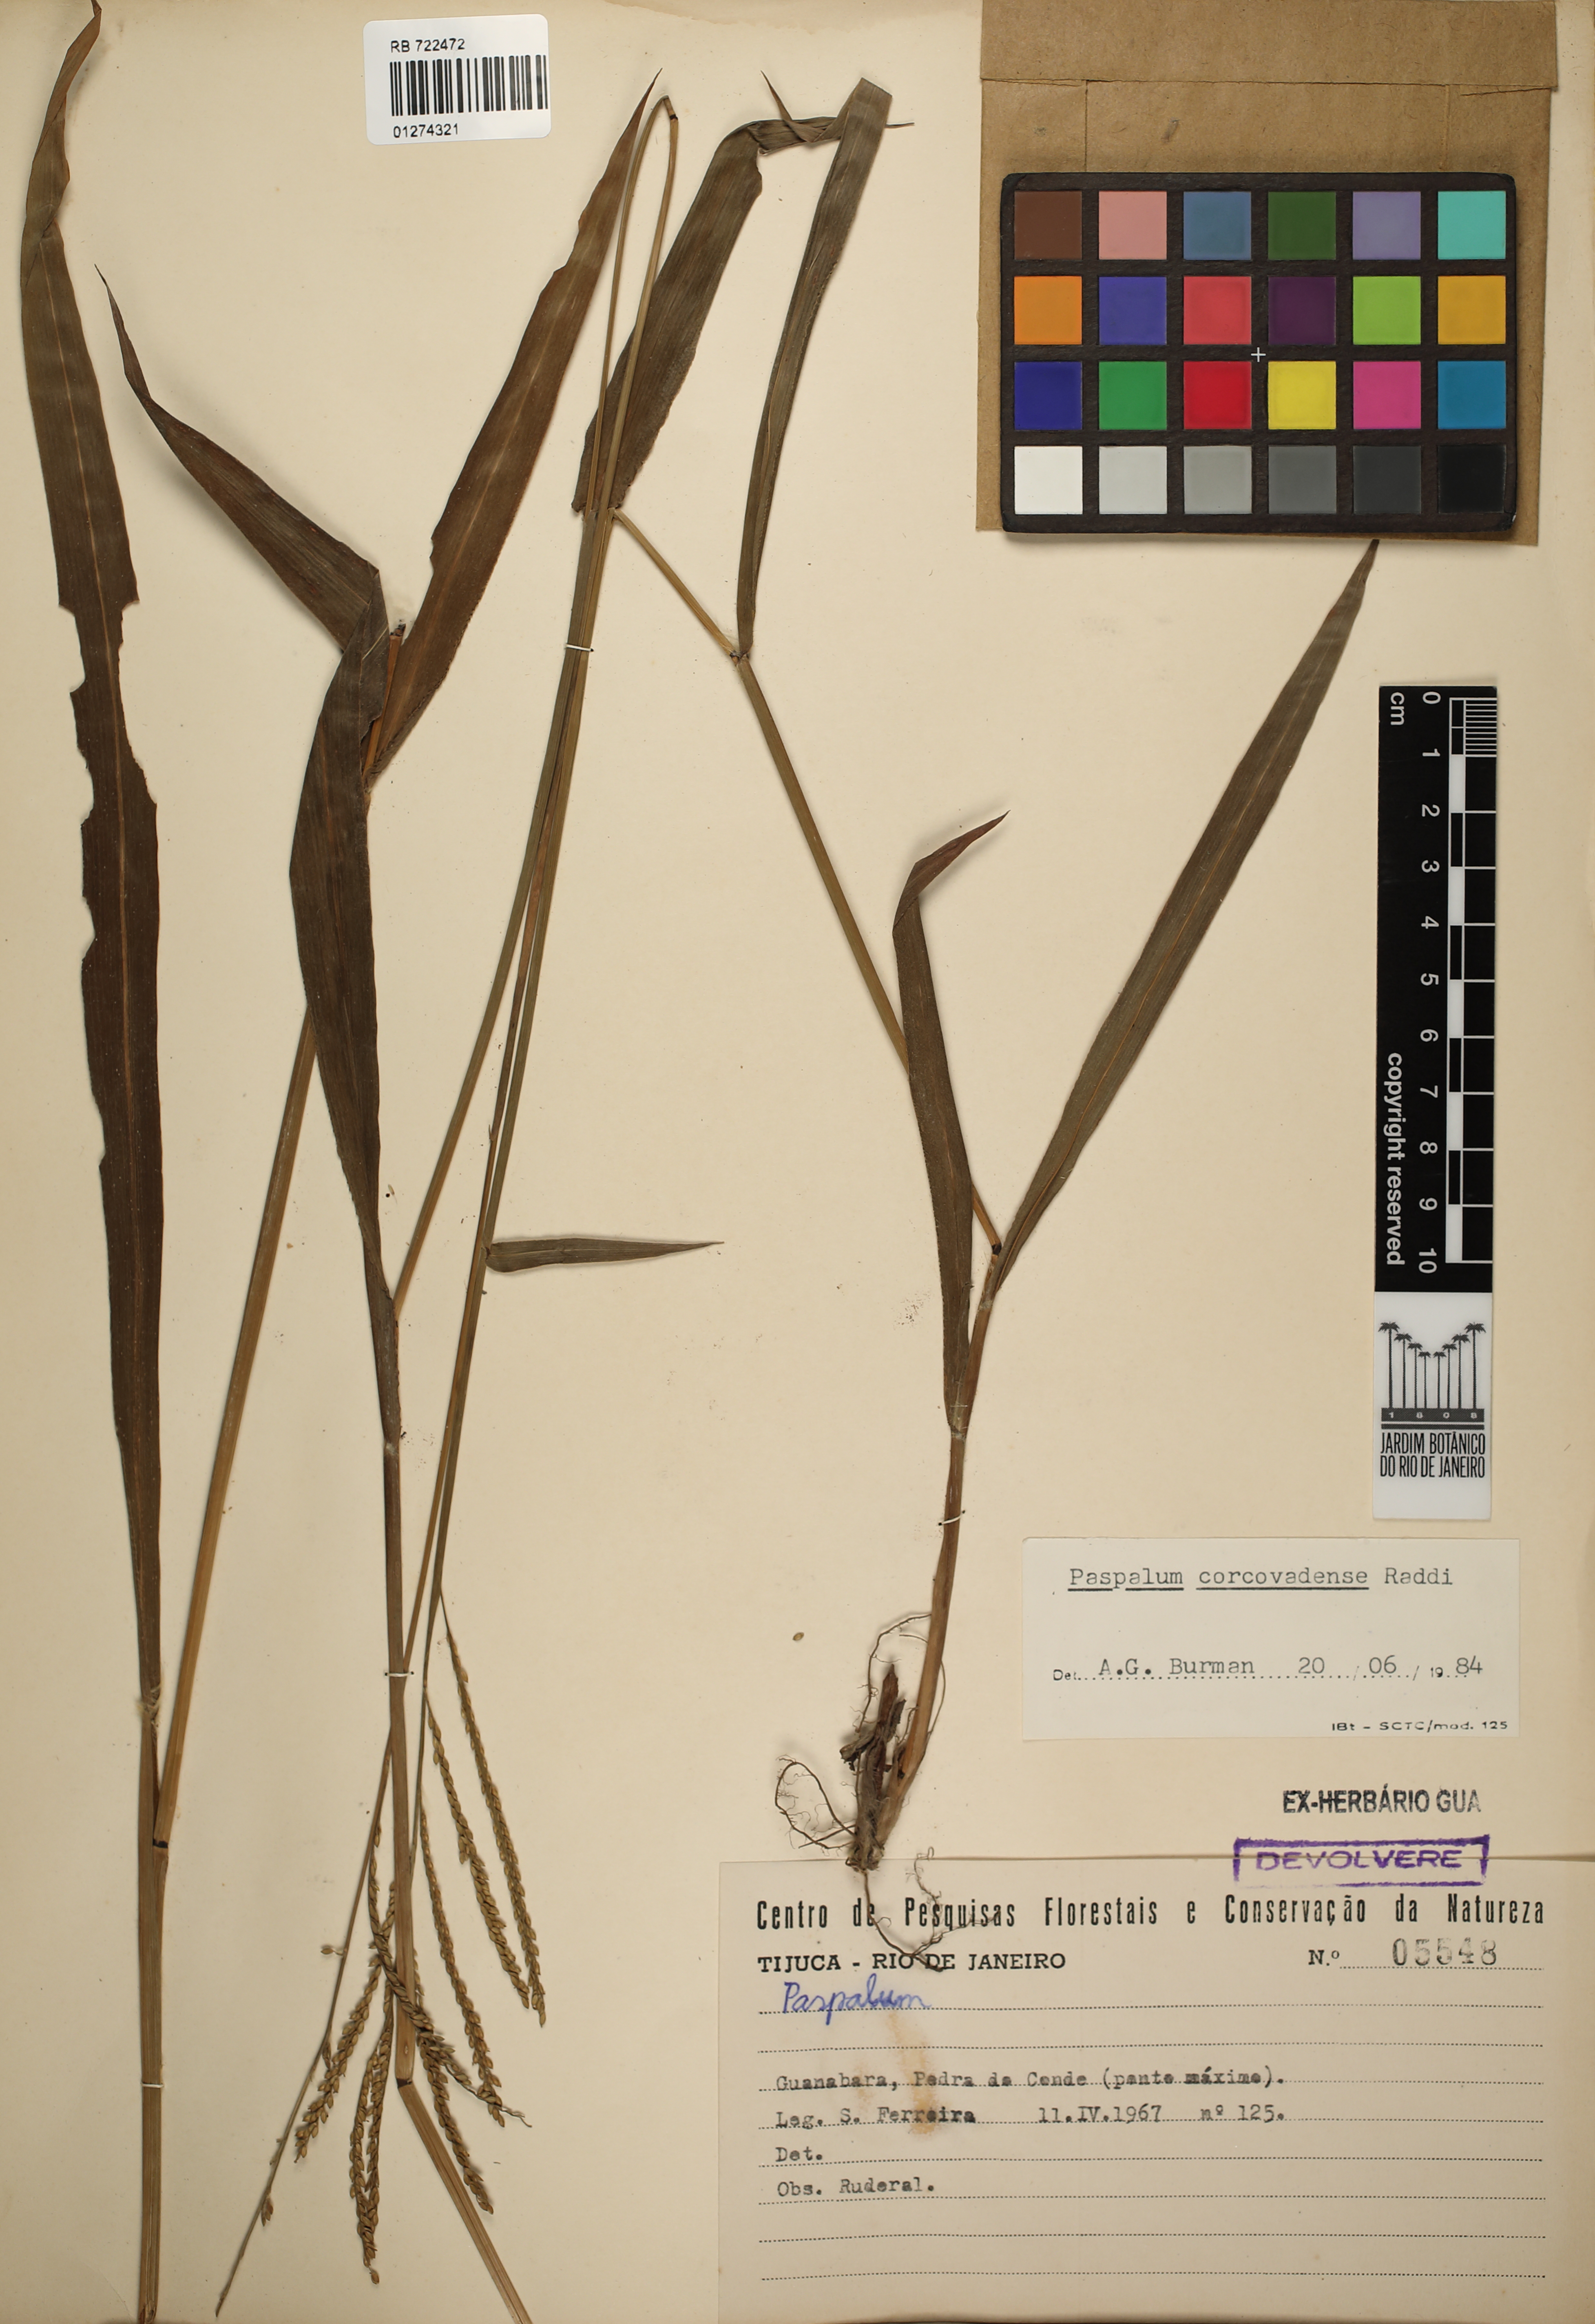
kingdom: Plantae
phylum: Tracheophyta
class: Liliopsida
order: Poales
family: Poaceae
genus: Paspalum
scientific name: Paspalum corcovadense
